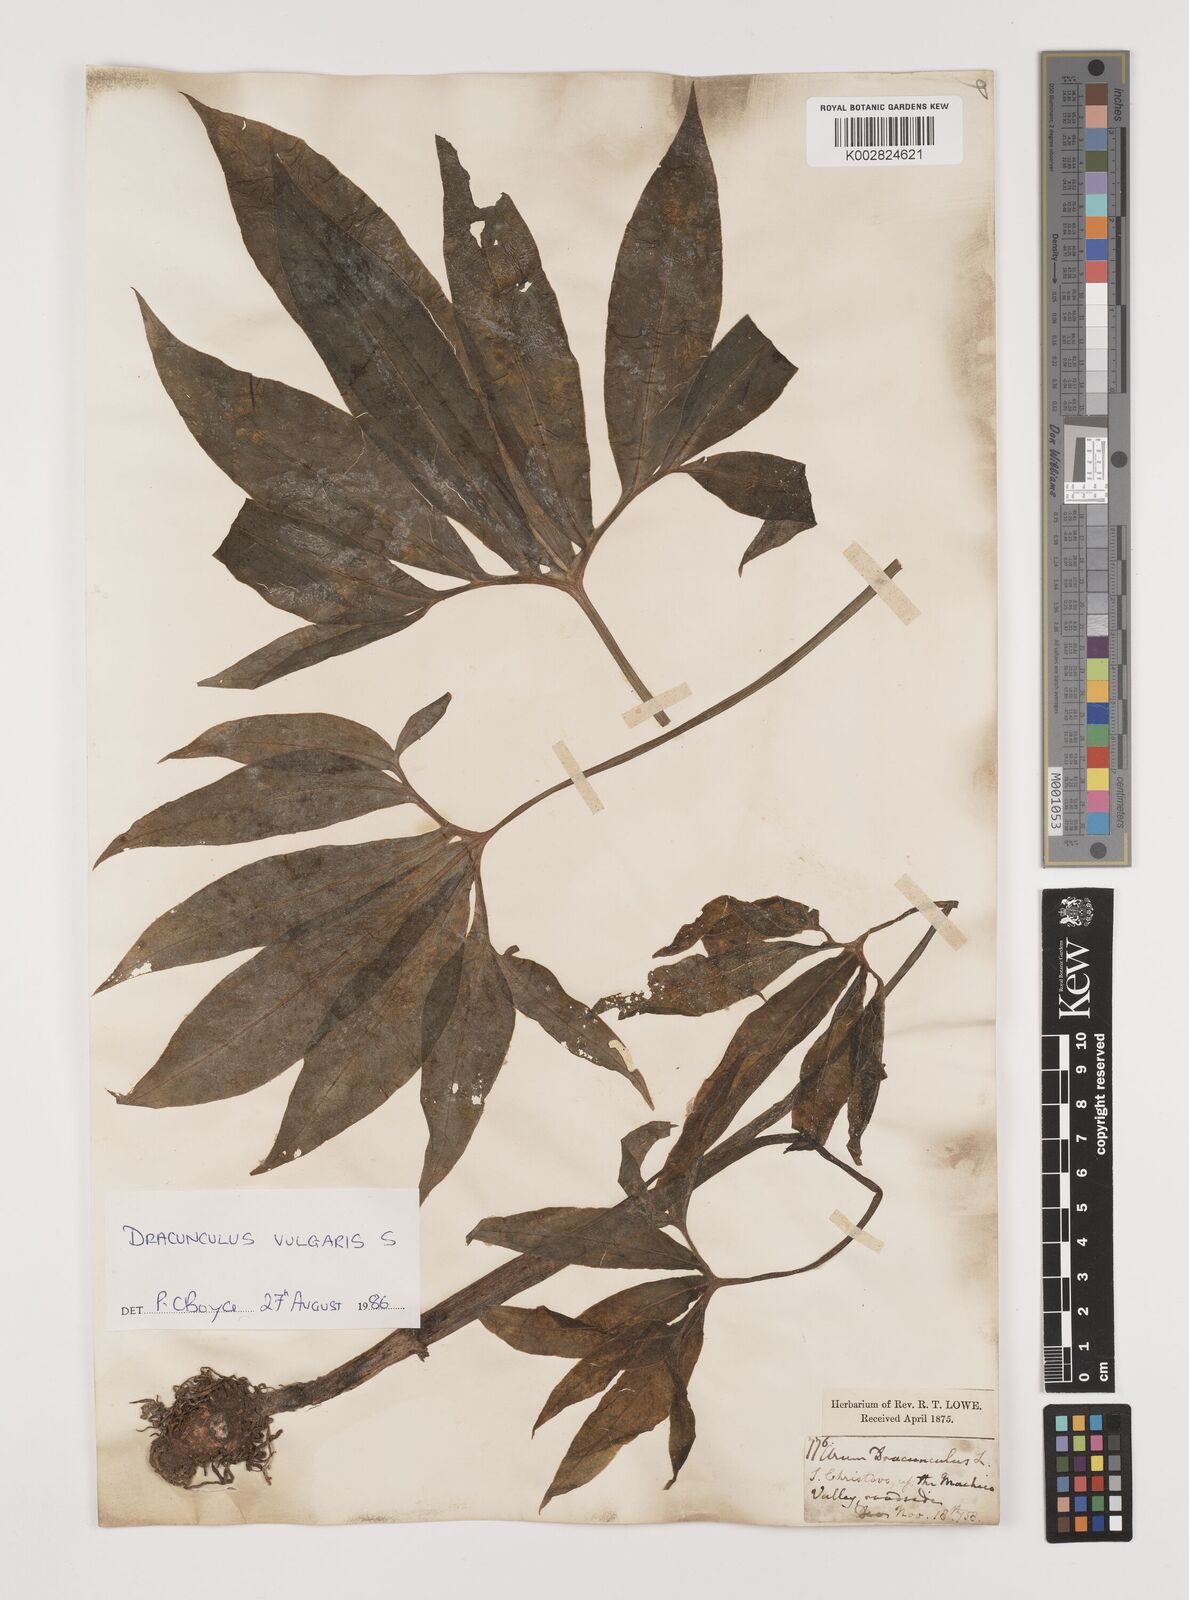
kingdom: Plantae
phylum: Tracheophyta
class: Liliopsida
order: Alismatales
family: Araceae
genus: Dracunculus
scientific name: Dracunculus vulgaris
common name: Dragon arum
